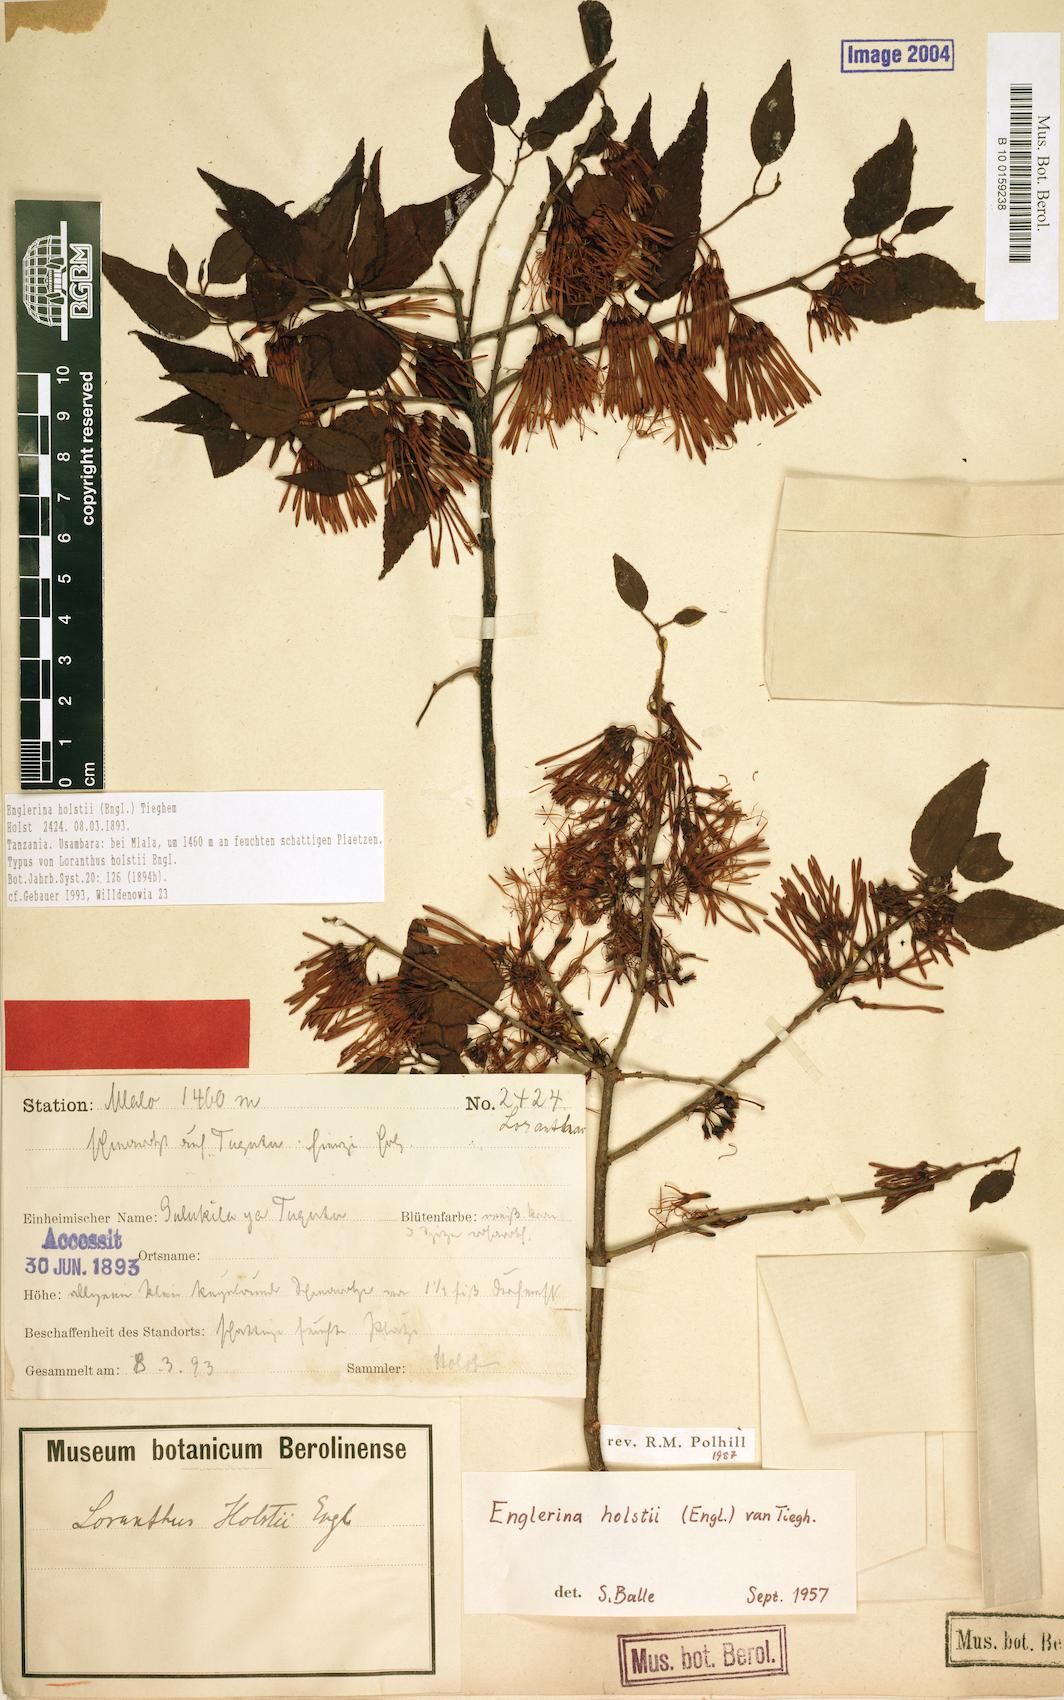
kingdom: Plantae
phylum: Tracheophyta
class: Magnoliopsida
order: Santalales
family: Loranthaceae
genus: Englerina
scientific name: Englerina holstii
